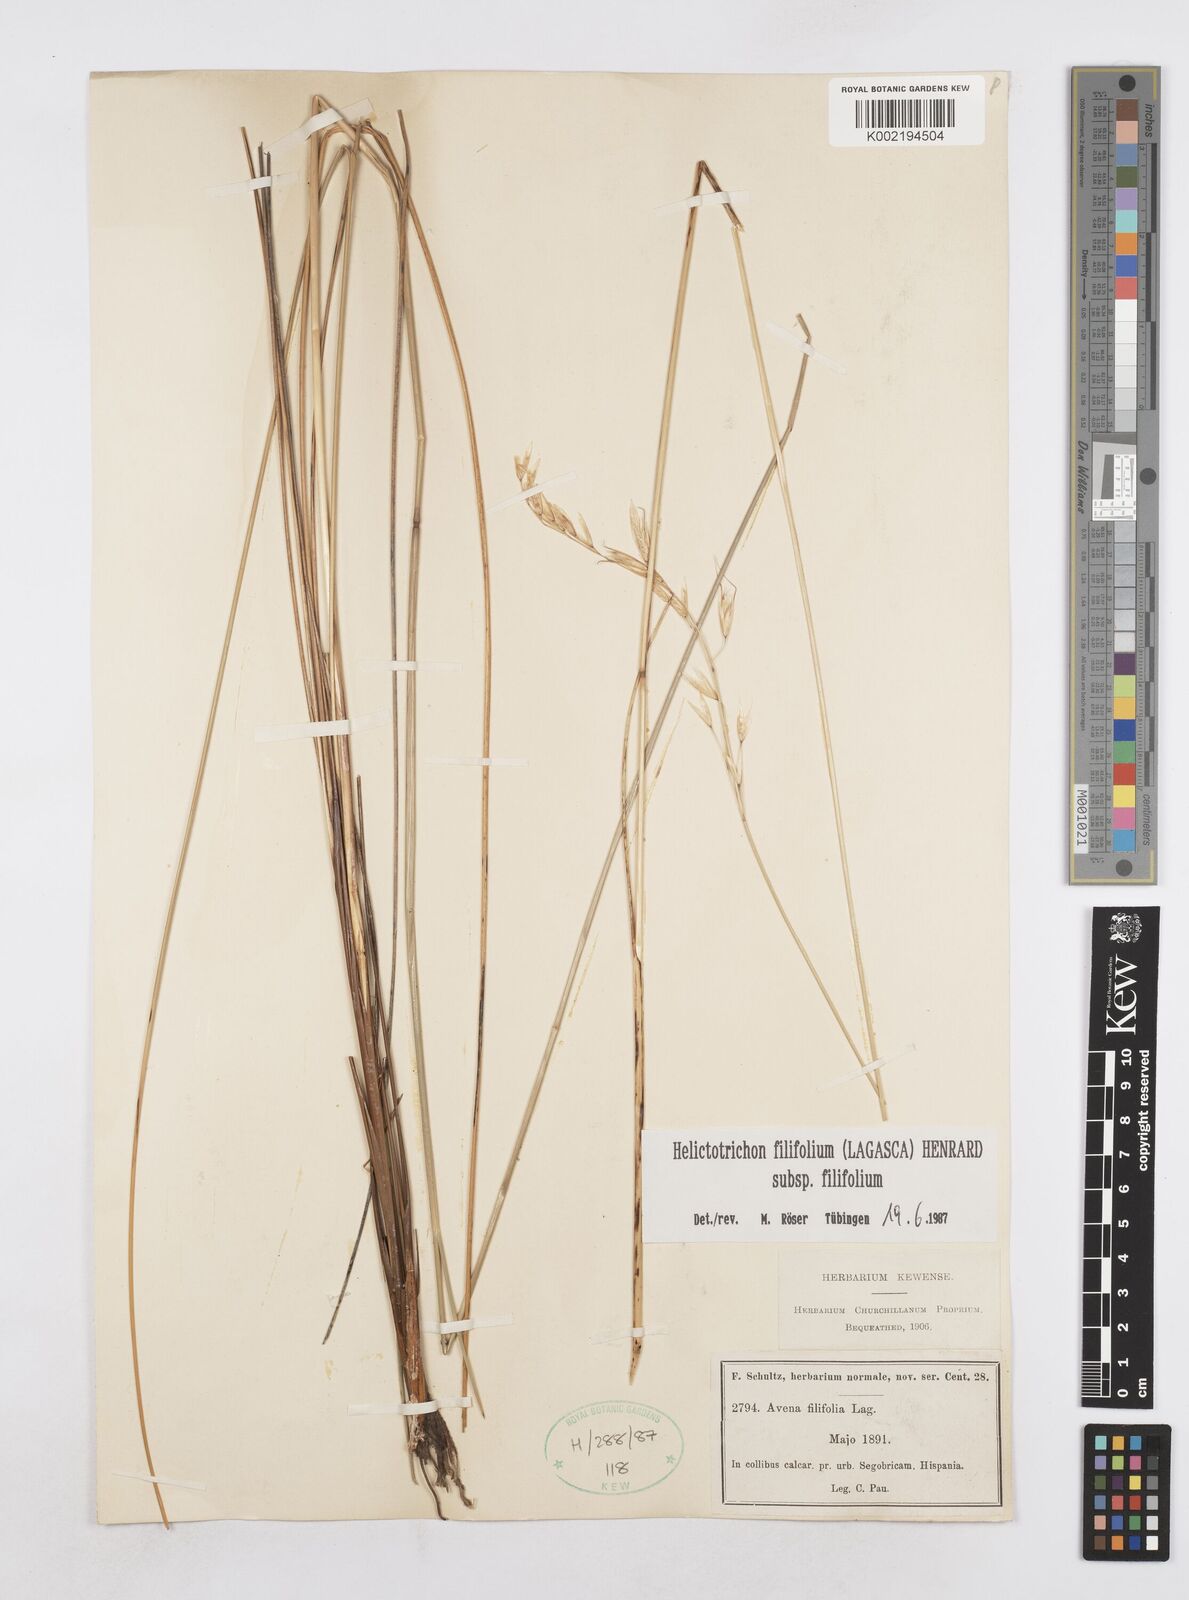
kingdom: Plantae
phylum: Tracheophyta
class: Liliopsida
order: Poales
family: Poaceae
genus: Helictotrichon
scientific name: Helictotrichon filifolium
